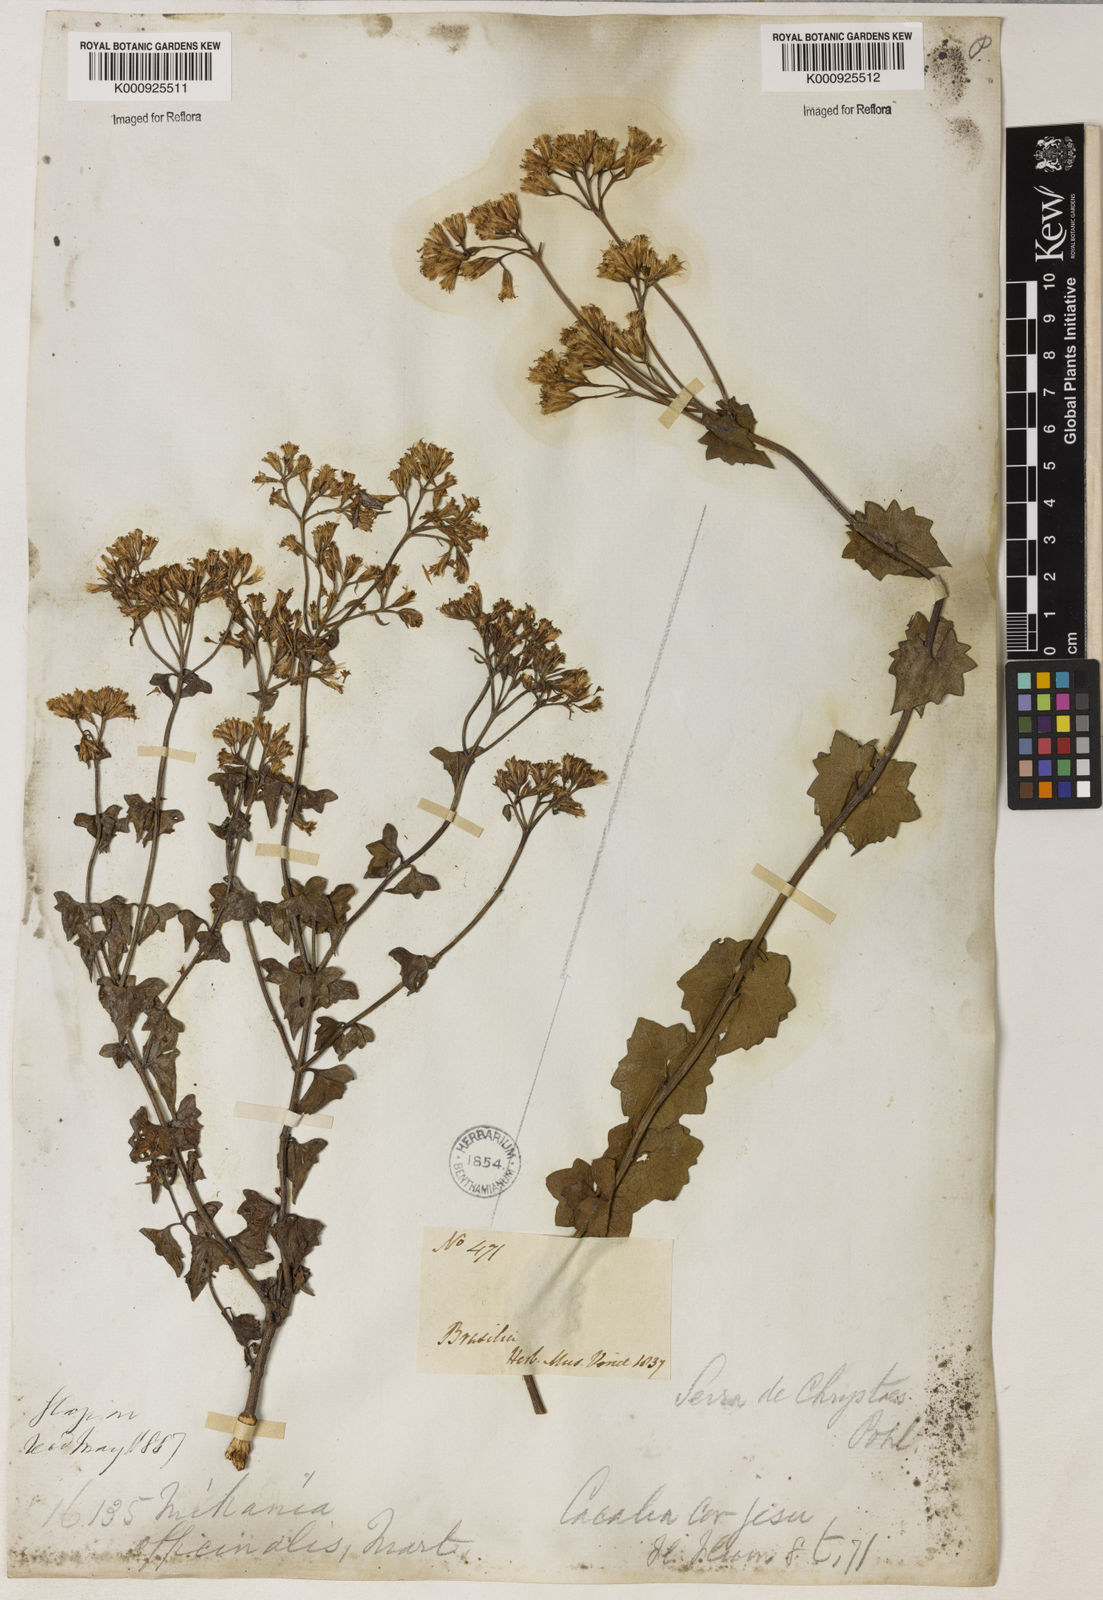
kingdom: Plantae
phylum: Tracheophyta
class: Magnoliopsida
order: Asterales
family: Asteraceae
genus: Mikania
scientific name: Mikania officinalis
